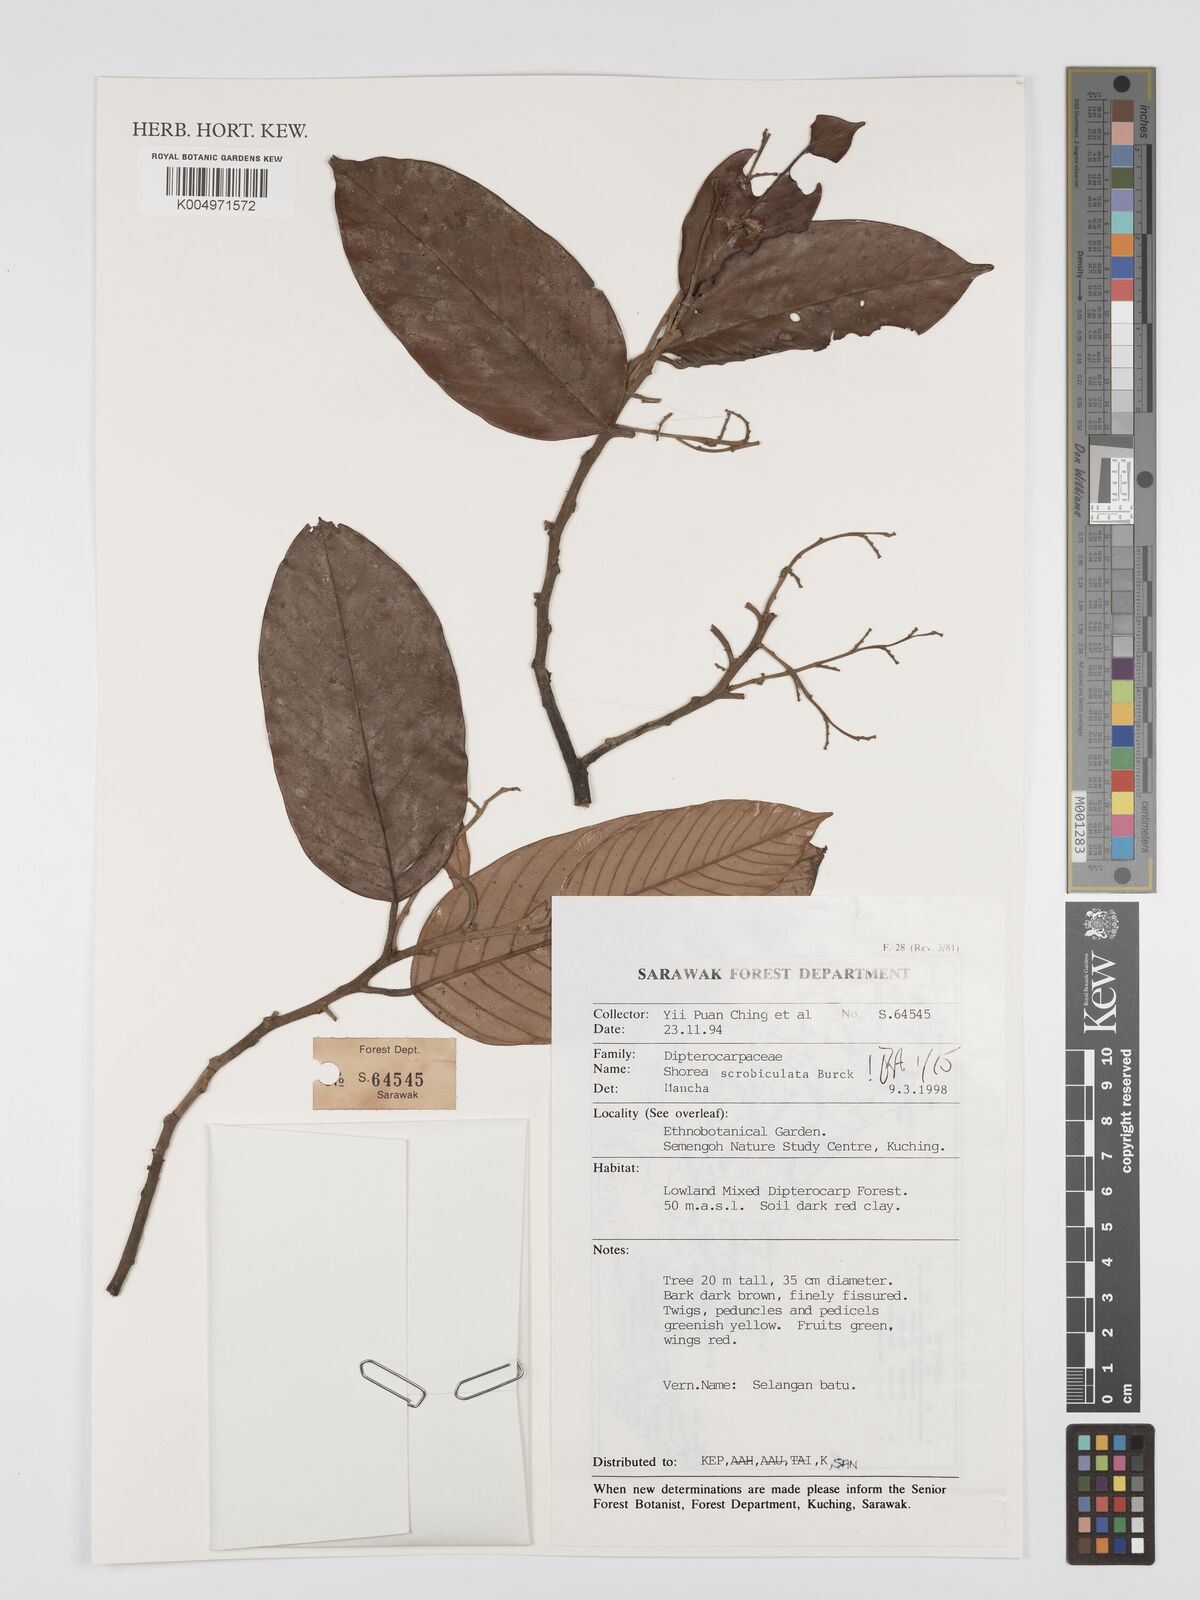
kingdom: Plantae
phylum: Tracheophyta
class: Magnoliopsida
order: Malvales
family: Dipterocarpaceae
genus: Shorea
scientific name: Shorea scrobiculata
